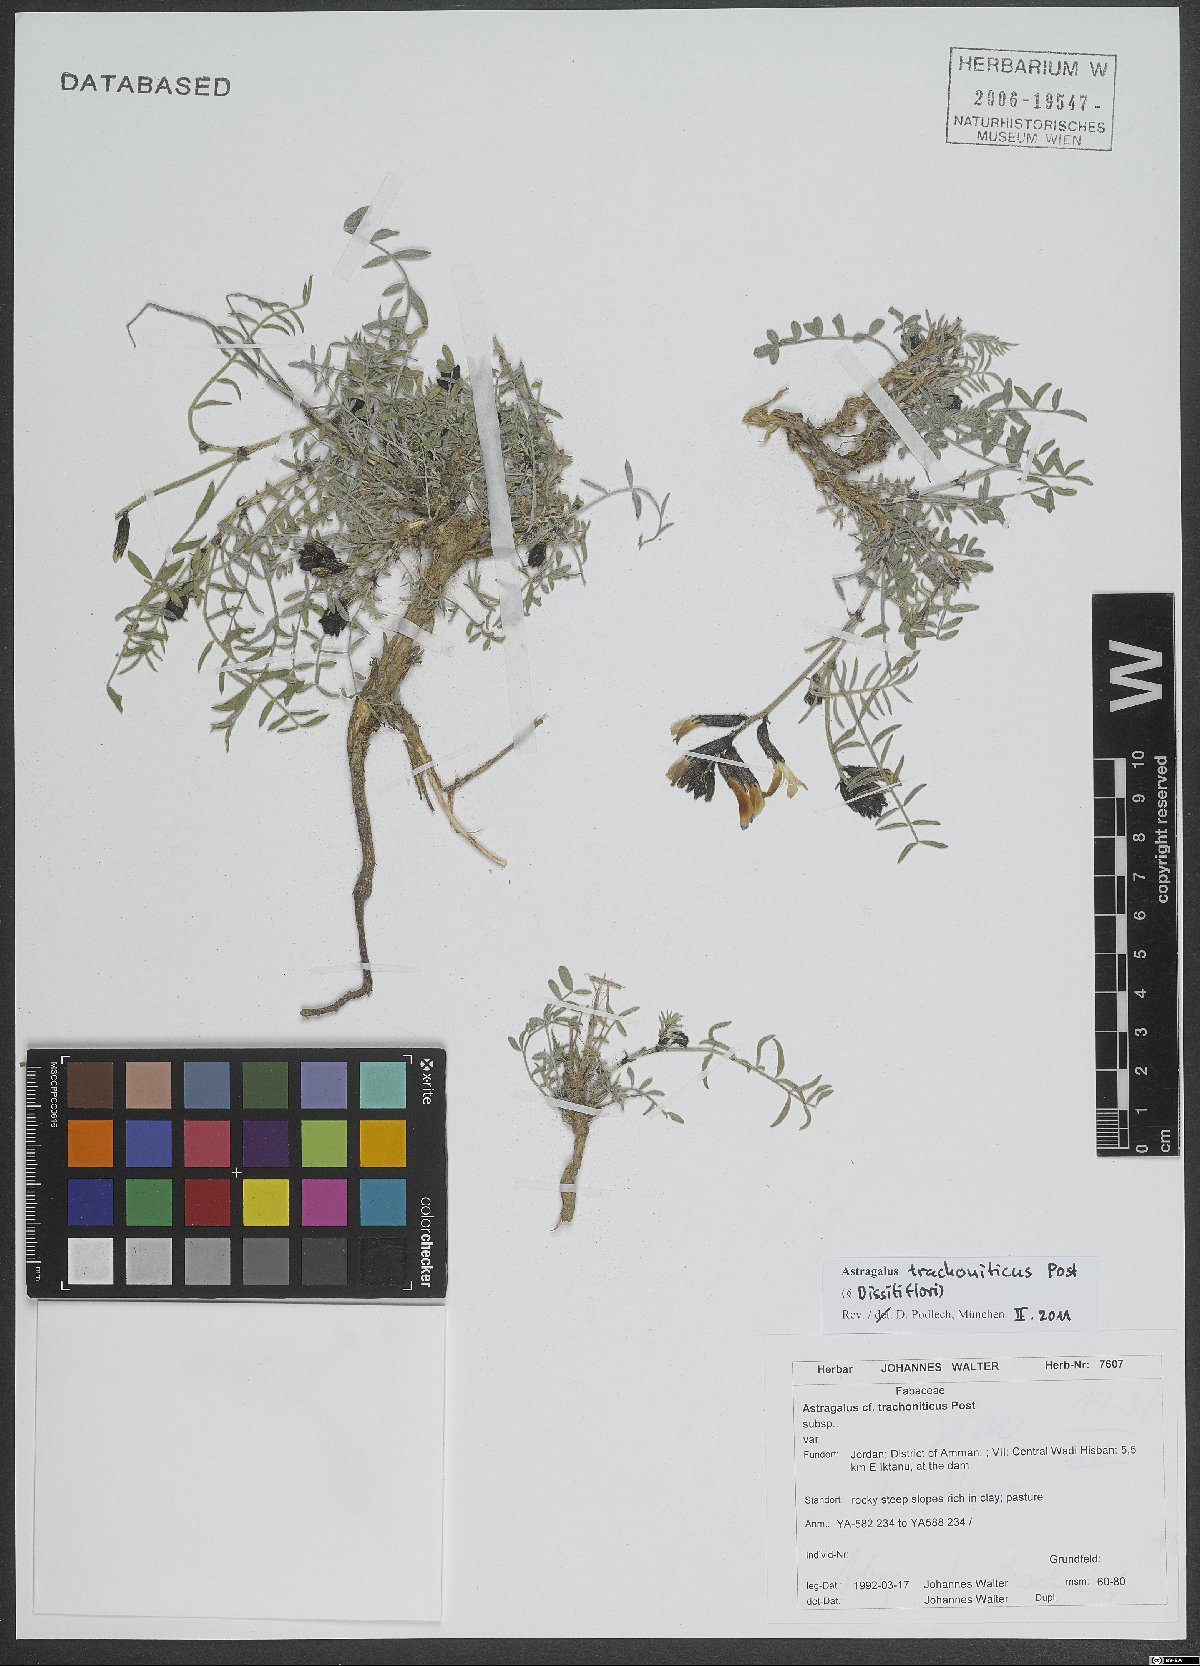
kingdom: Plantae
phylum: Tracheophyta
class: Magnoliopsida
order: Fabales
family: Fabaceae
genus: Astragalus
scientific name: Astragalus trachoniticus
